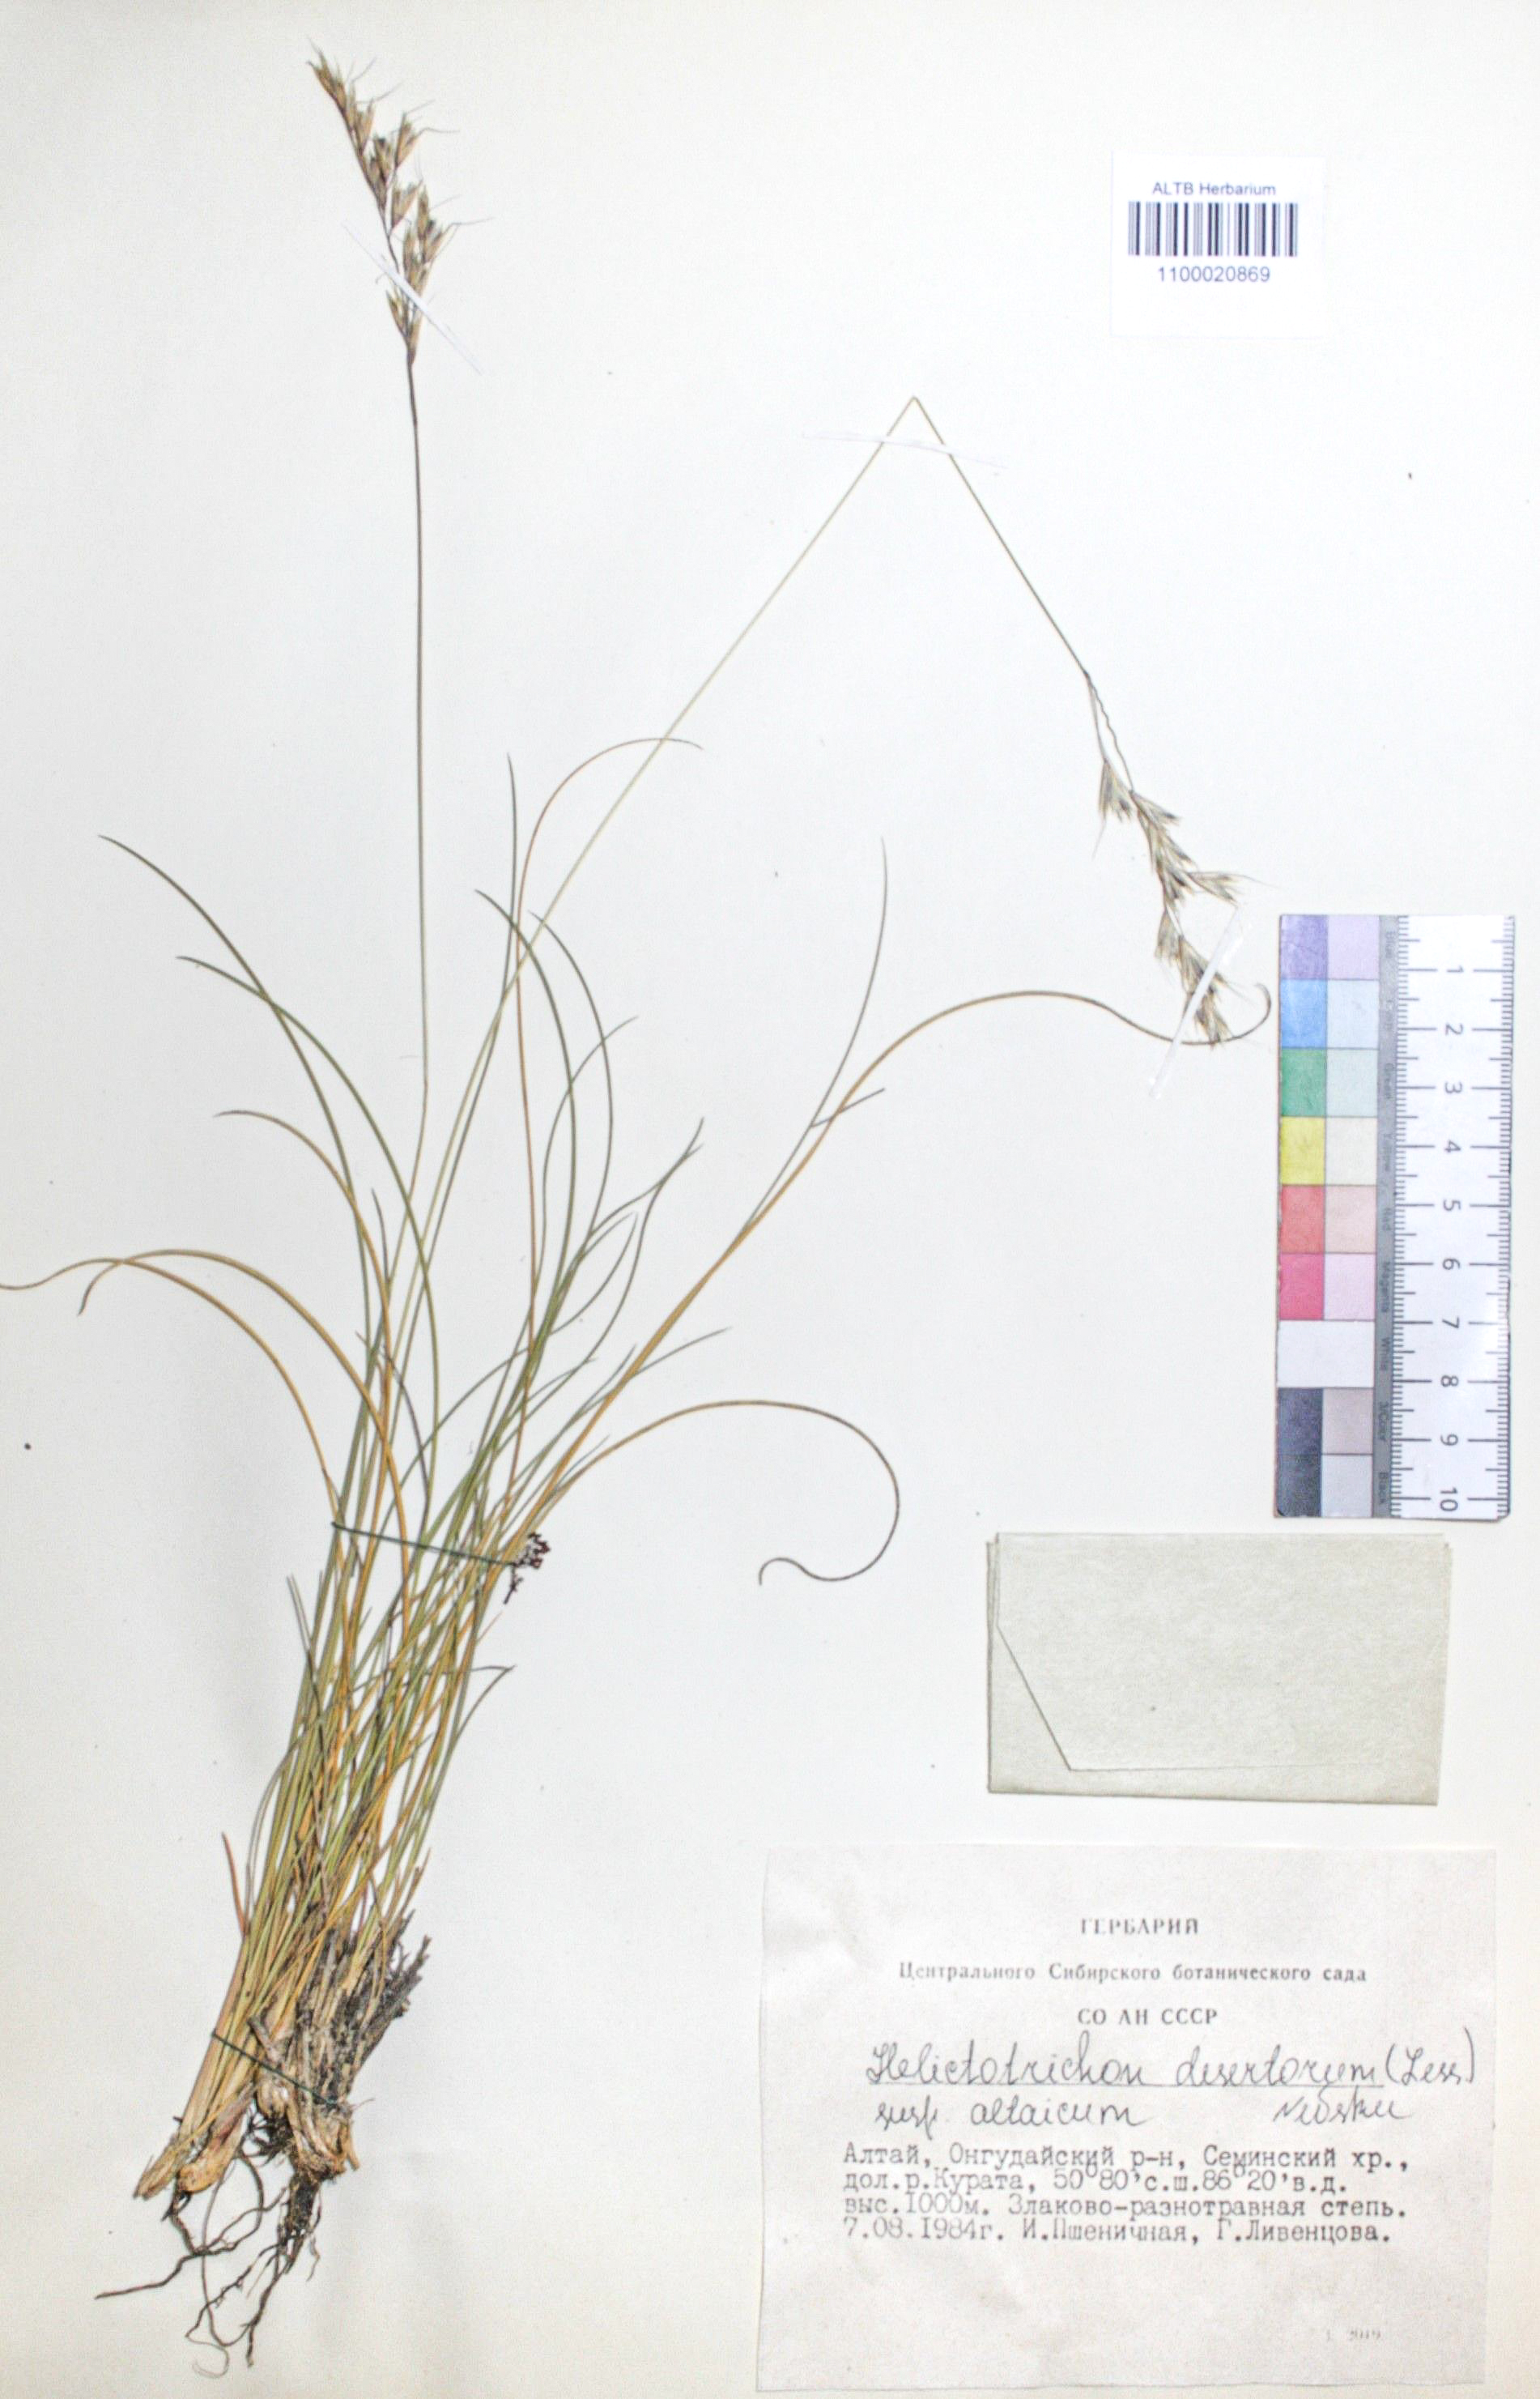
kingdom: Plantae
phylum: Tracheophyta
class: Liliopsida
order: Poales
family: Poaceae
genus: Helictotrichon
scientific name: Helictotrichon desertorum
